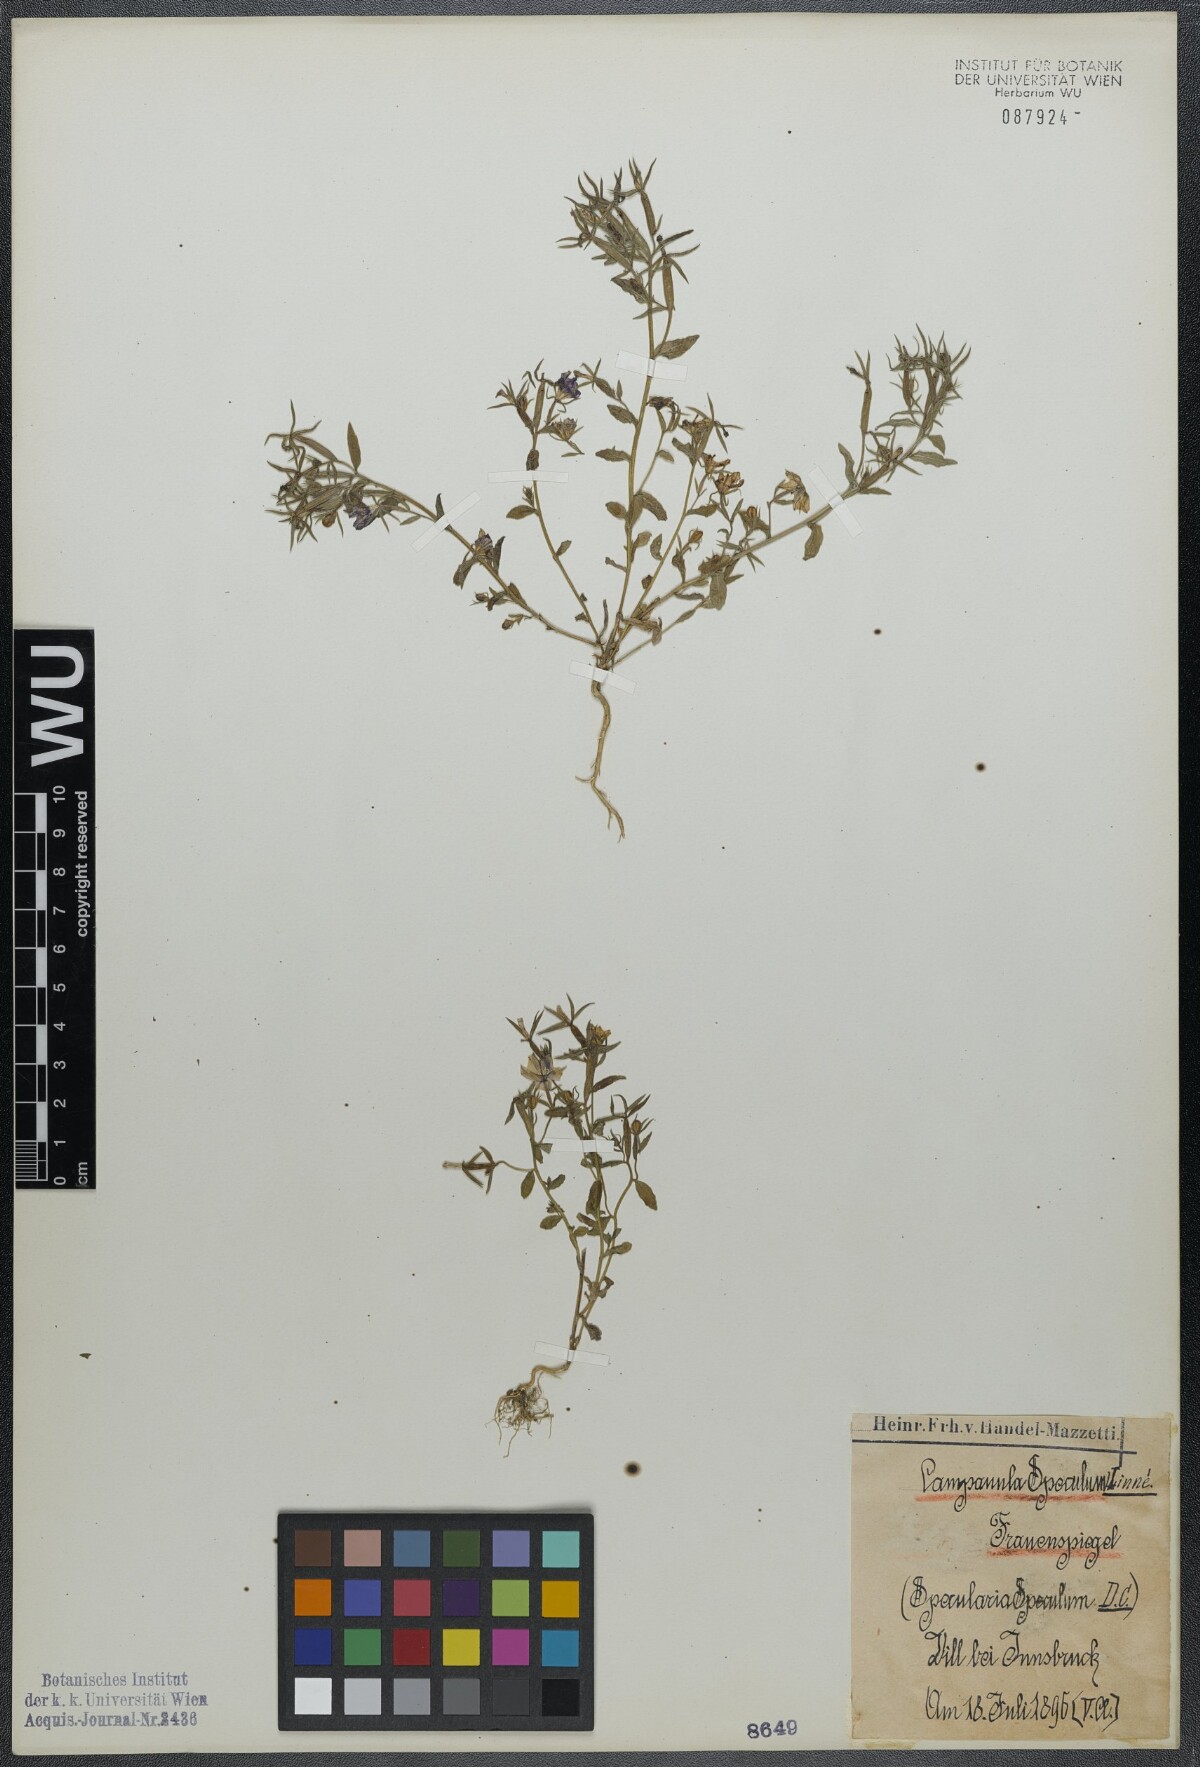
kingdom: Plantae
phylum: Tracheophyta
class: Magnoliopsida
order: Asterales
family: Campanulaceae
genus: Legousia
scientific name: Legousia speculum-veneris
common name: Large venus's-looking-glass
